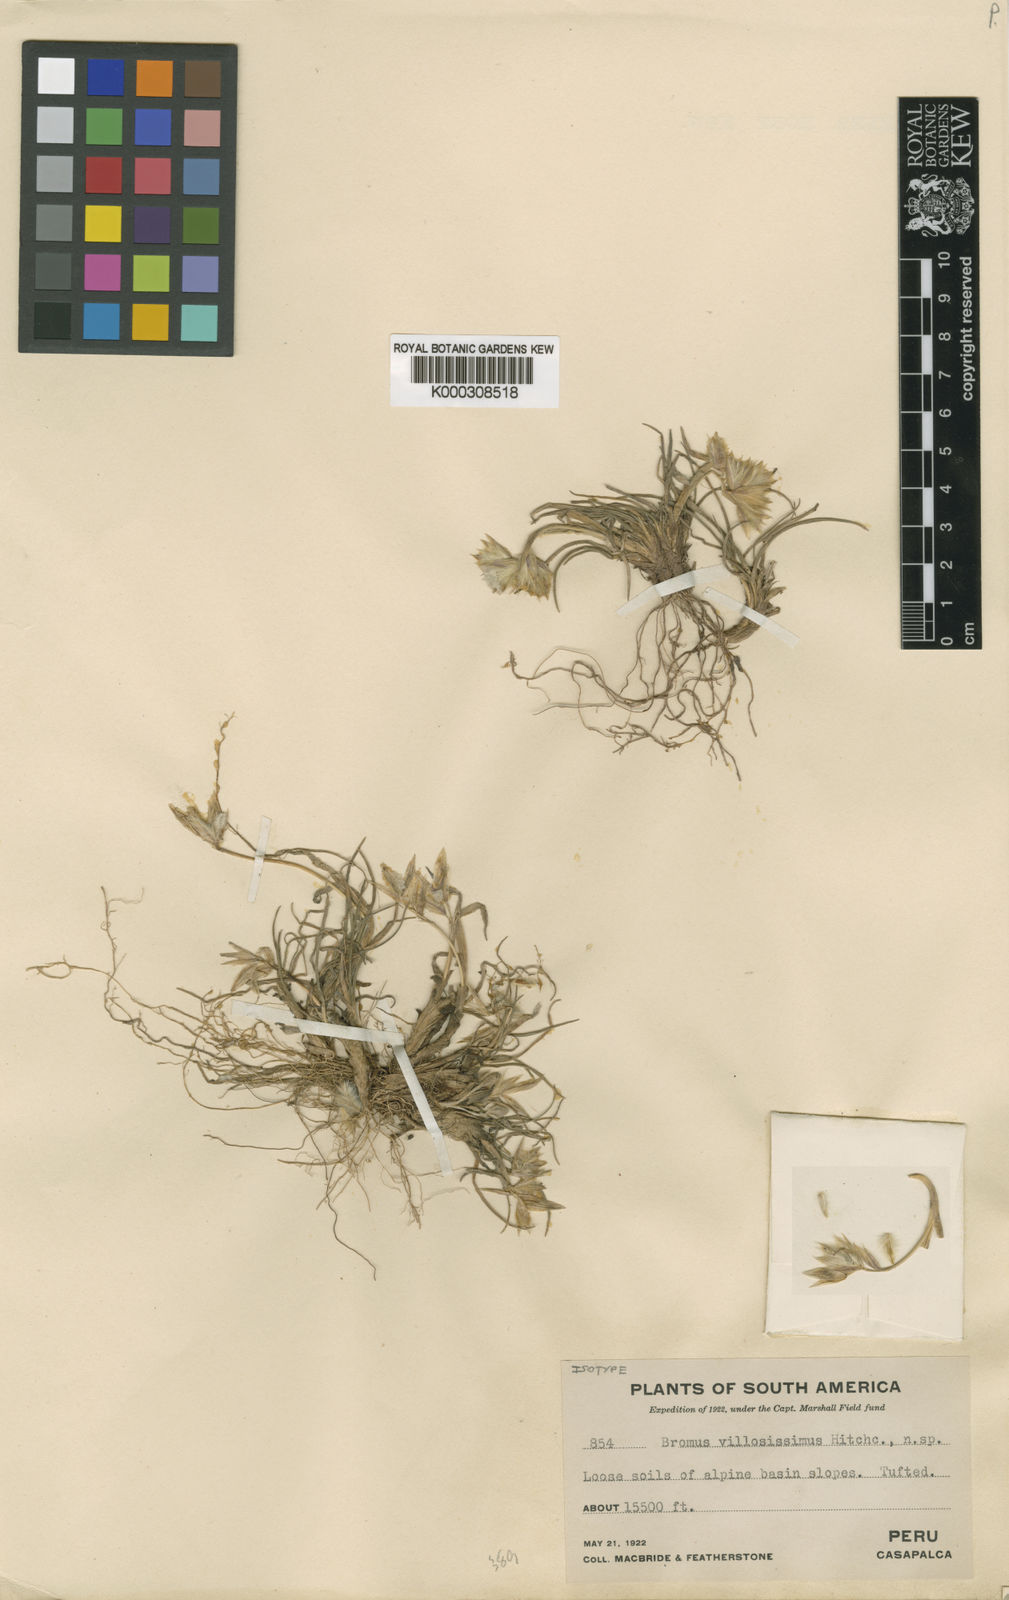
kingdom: Plantae
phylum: Tracheophyta
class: Liliopsida
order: Poales
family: Poaceae
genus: Bromus
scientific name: Bromus villosissimus
